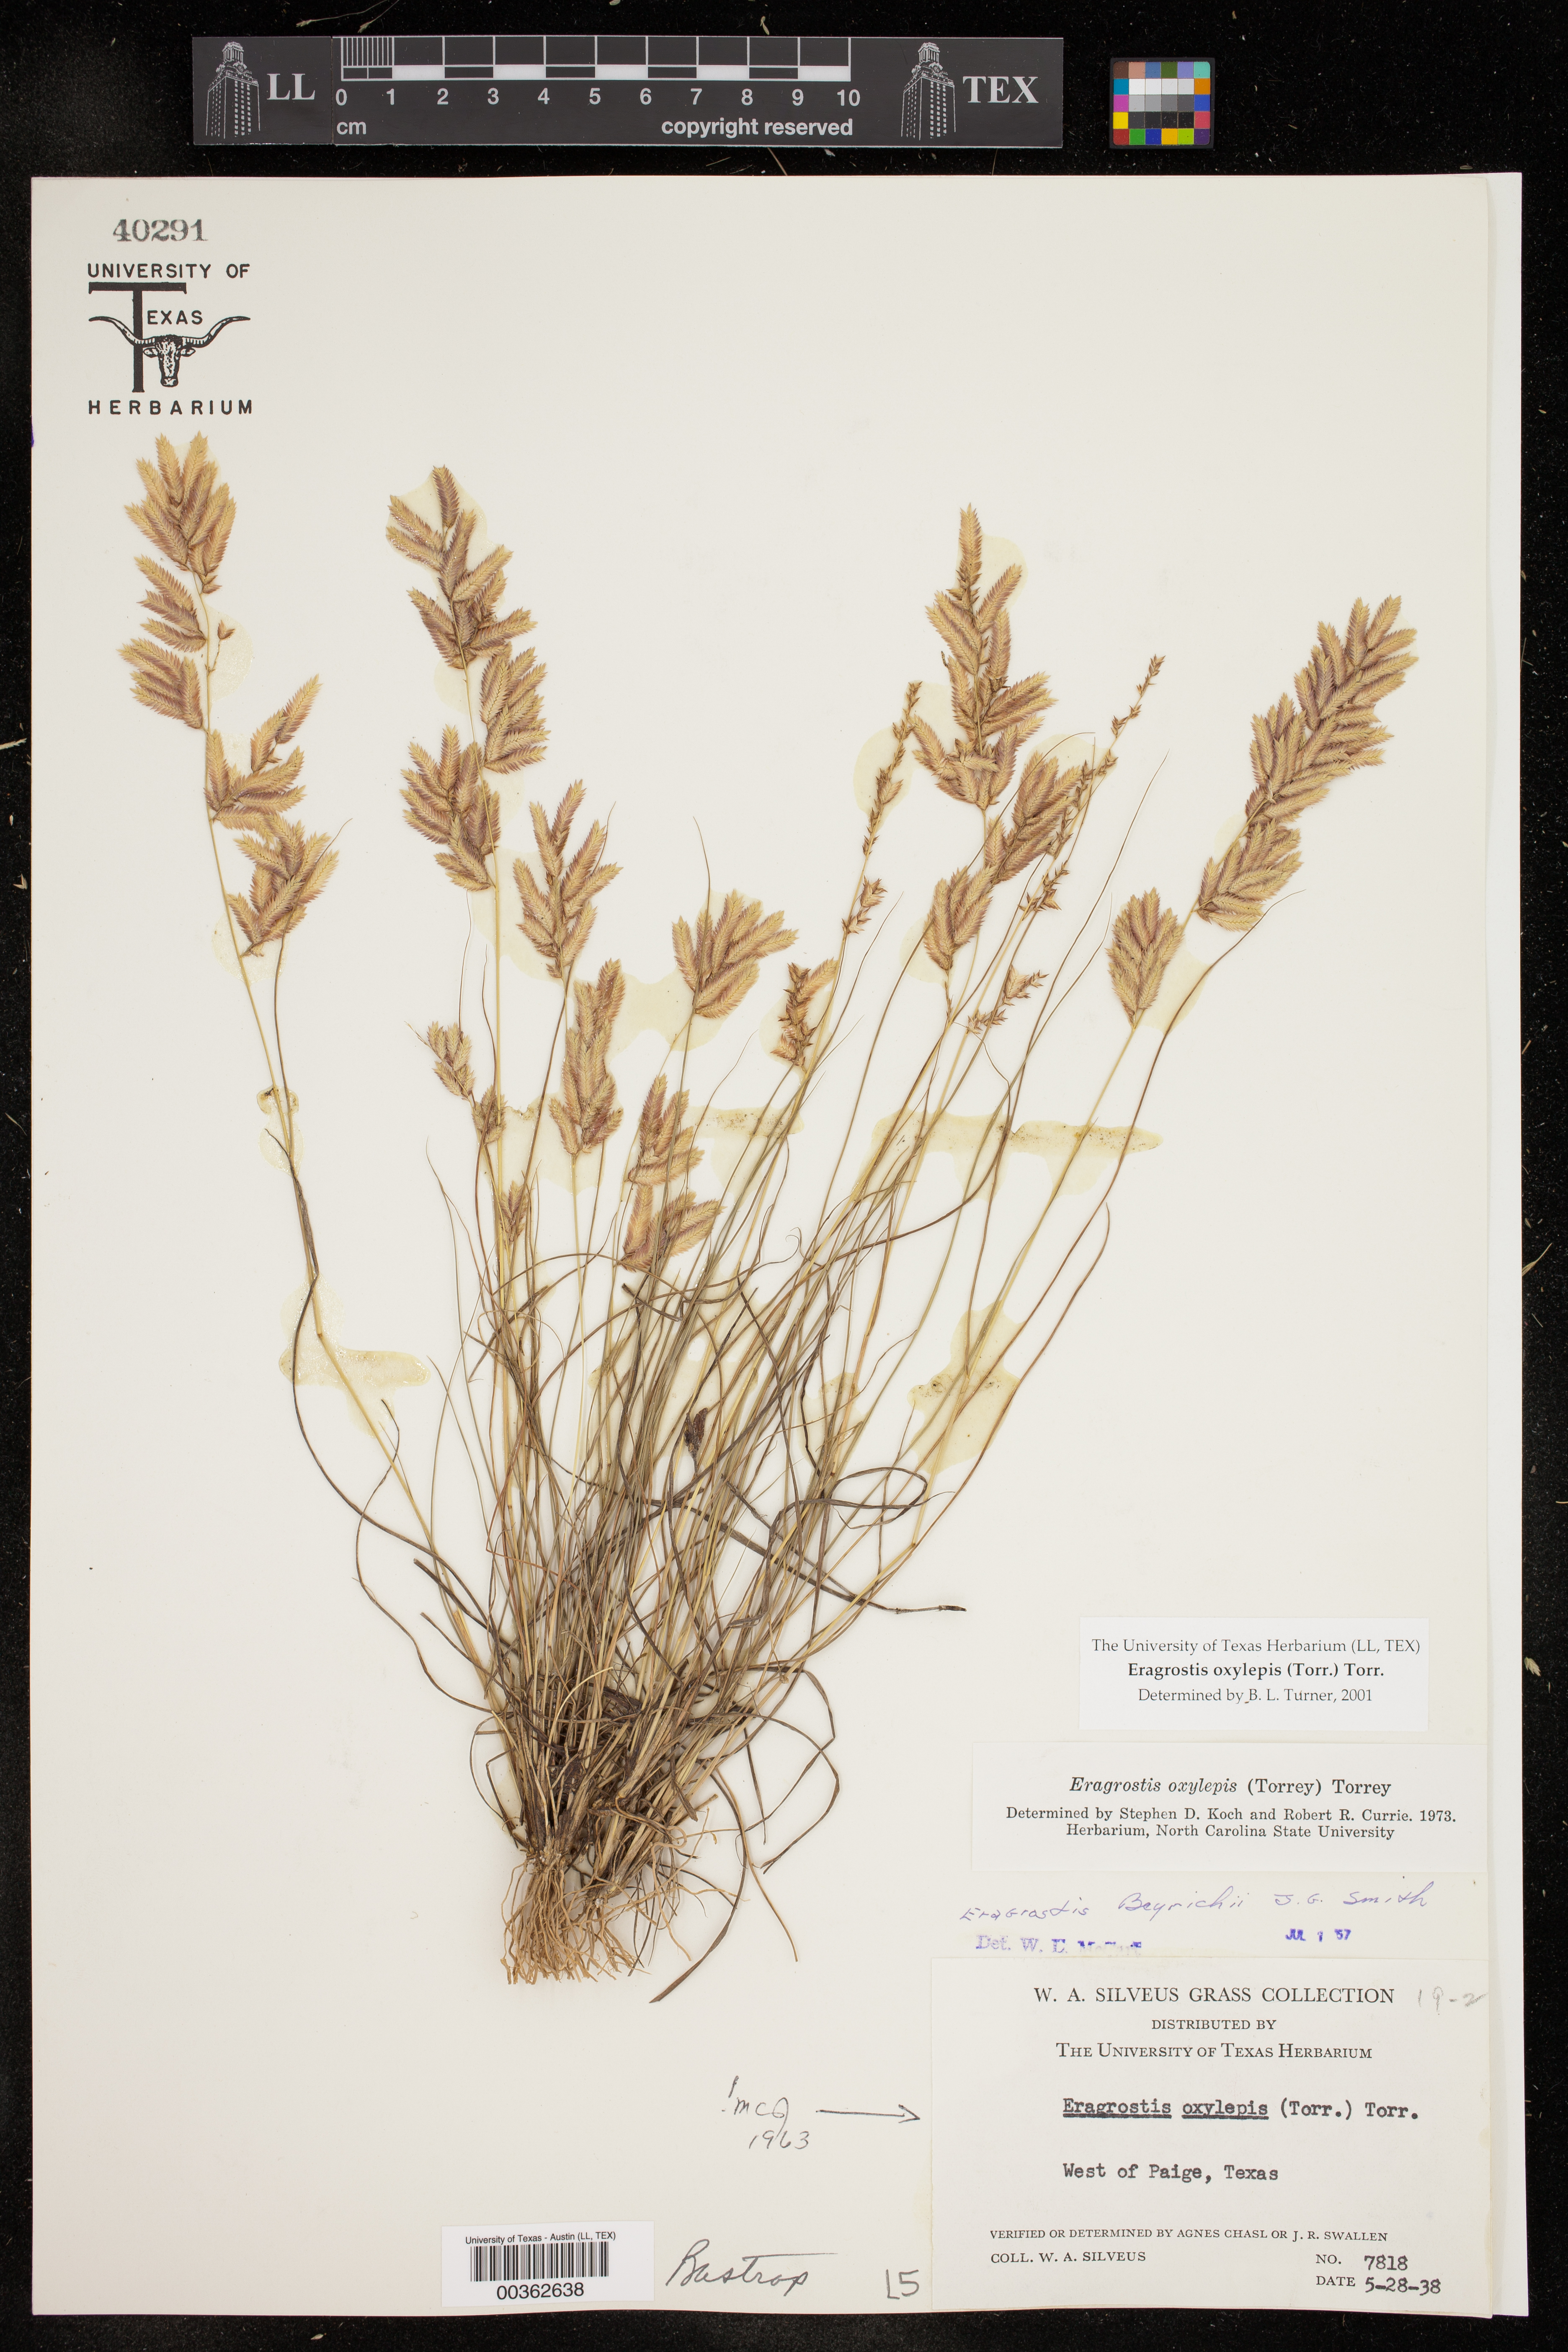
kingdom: Plantae
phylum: Tracheophyta
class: Liliopsida
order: Poales
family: Poaceae
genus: Eragrostis
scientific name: Eragrostis secundiflora
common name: Red love grass
